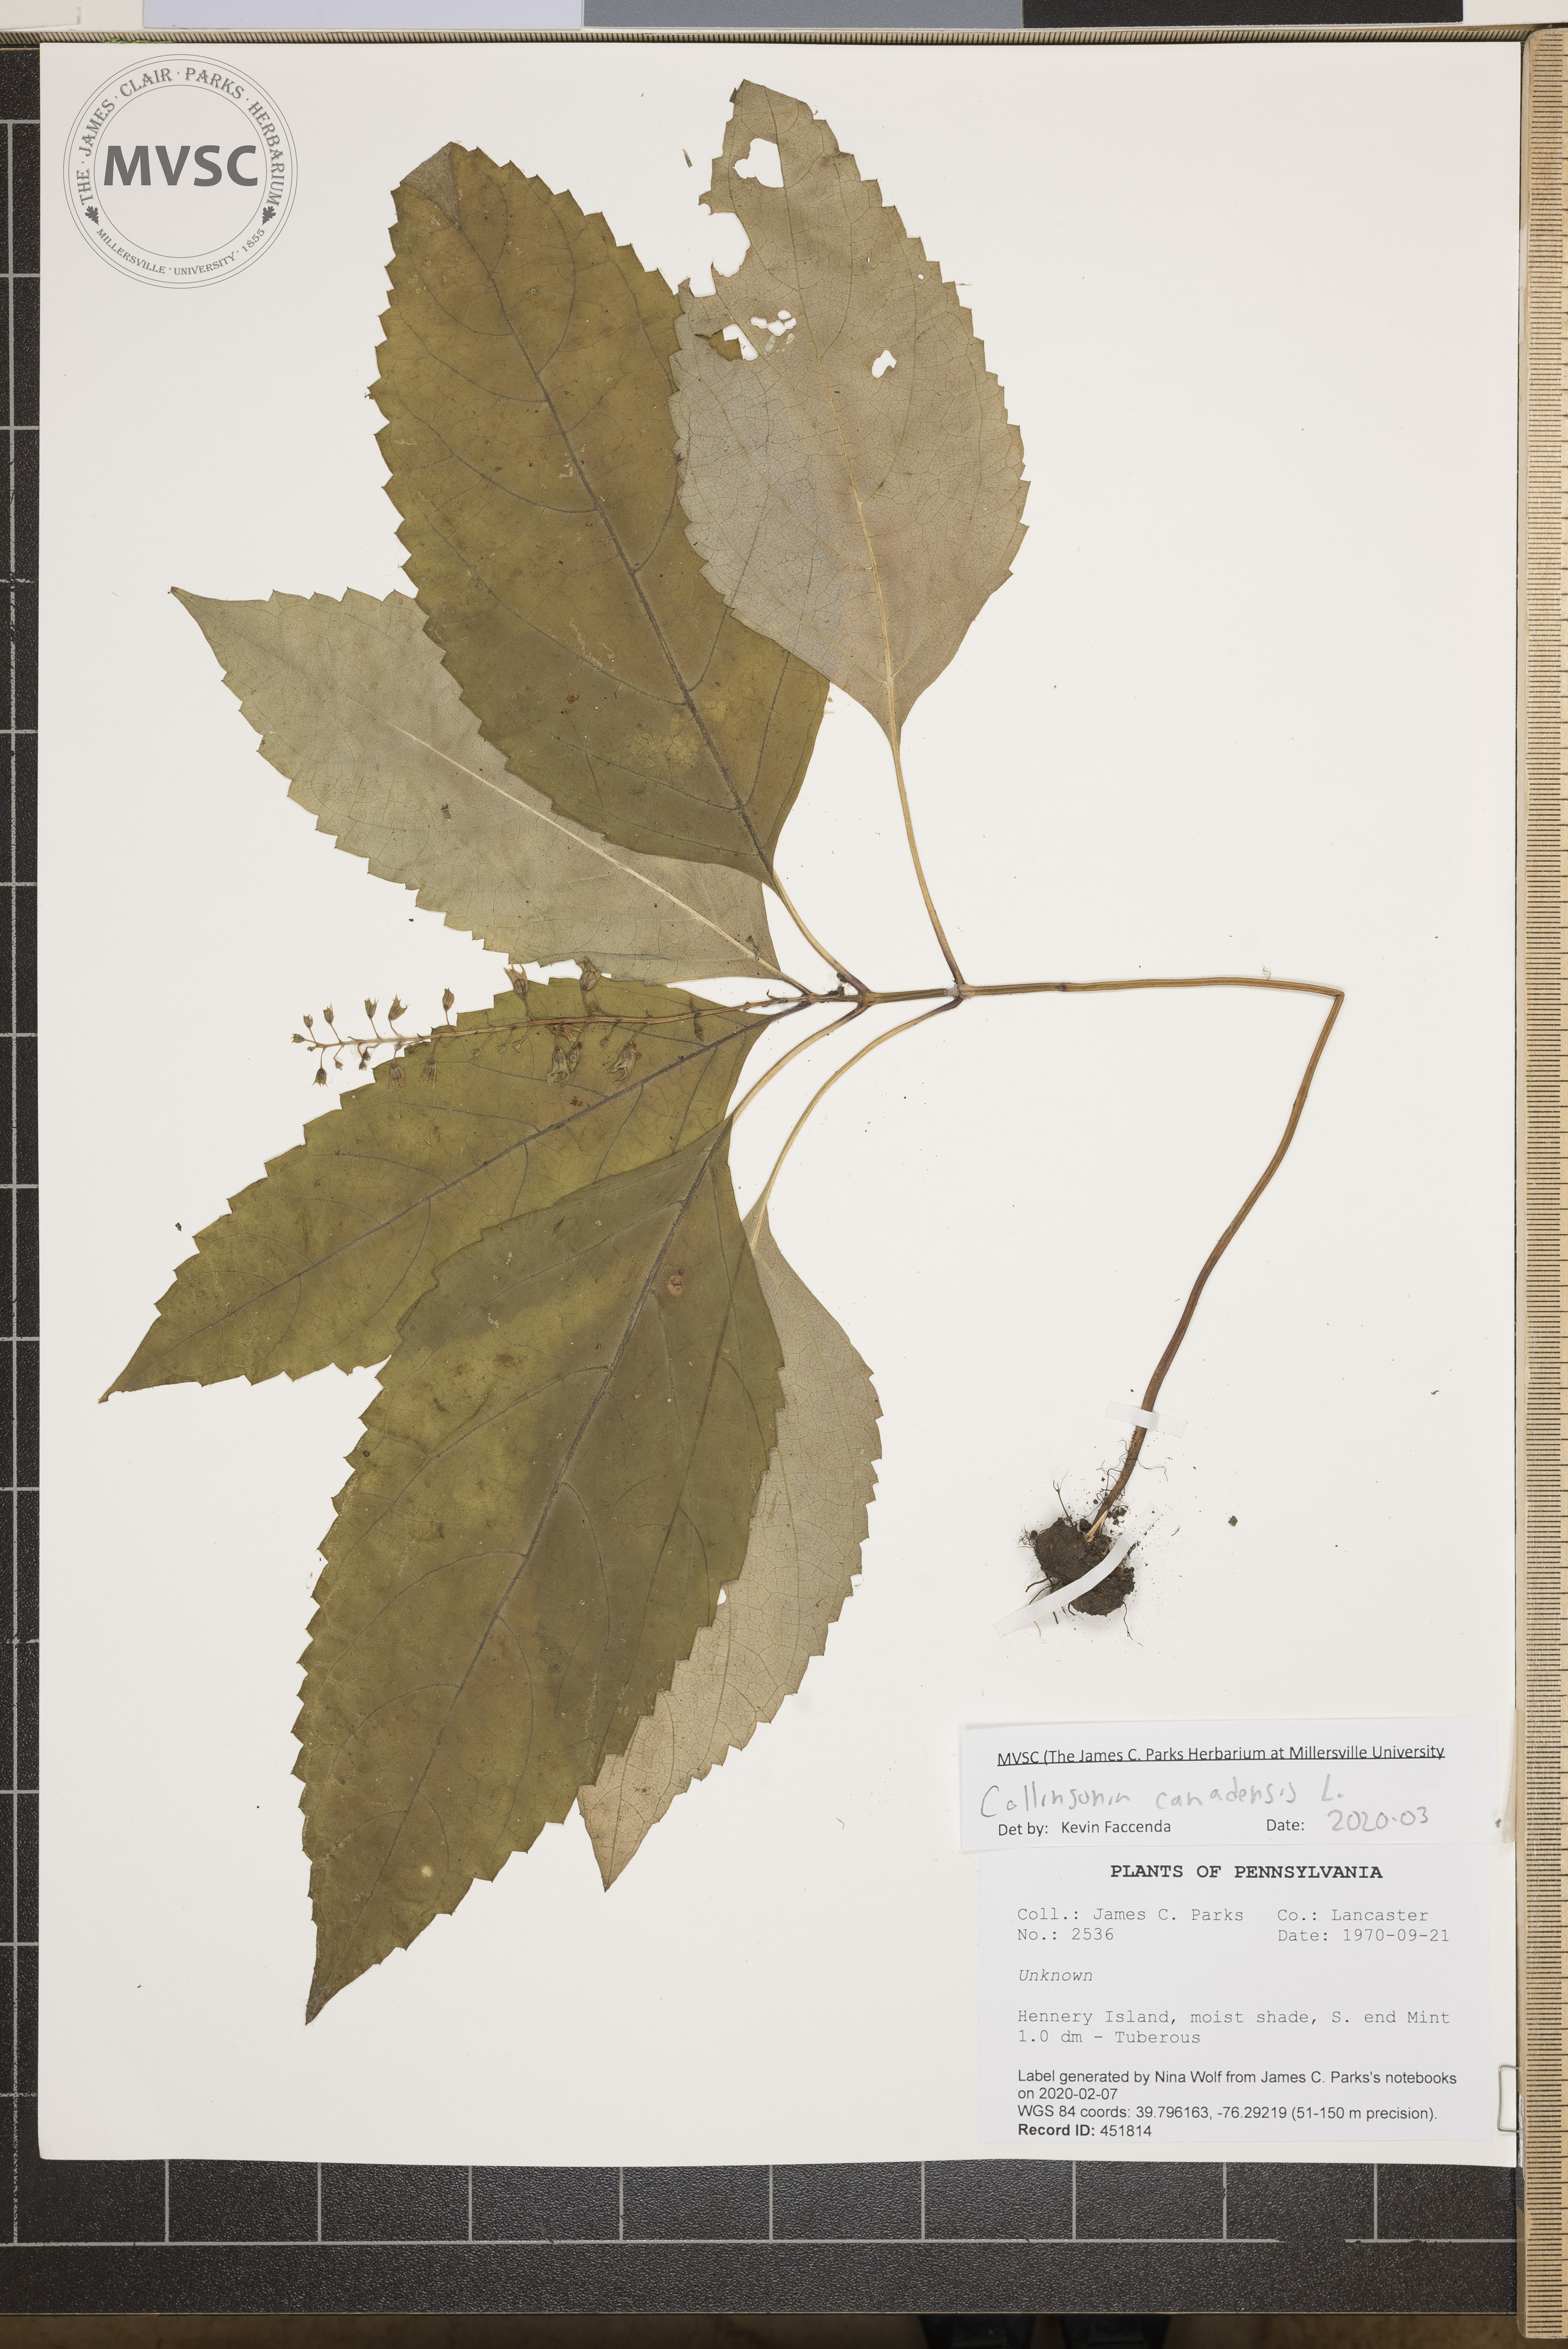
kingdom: Plantae
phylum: Tracheophyta
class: Magnoliopsida
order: Lamiales
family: Lamiaceae
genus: Collinsonia
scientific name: Collinsonia canadensis
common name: Northern horsebalm
